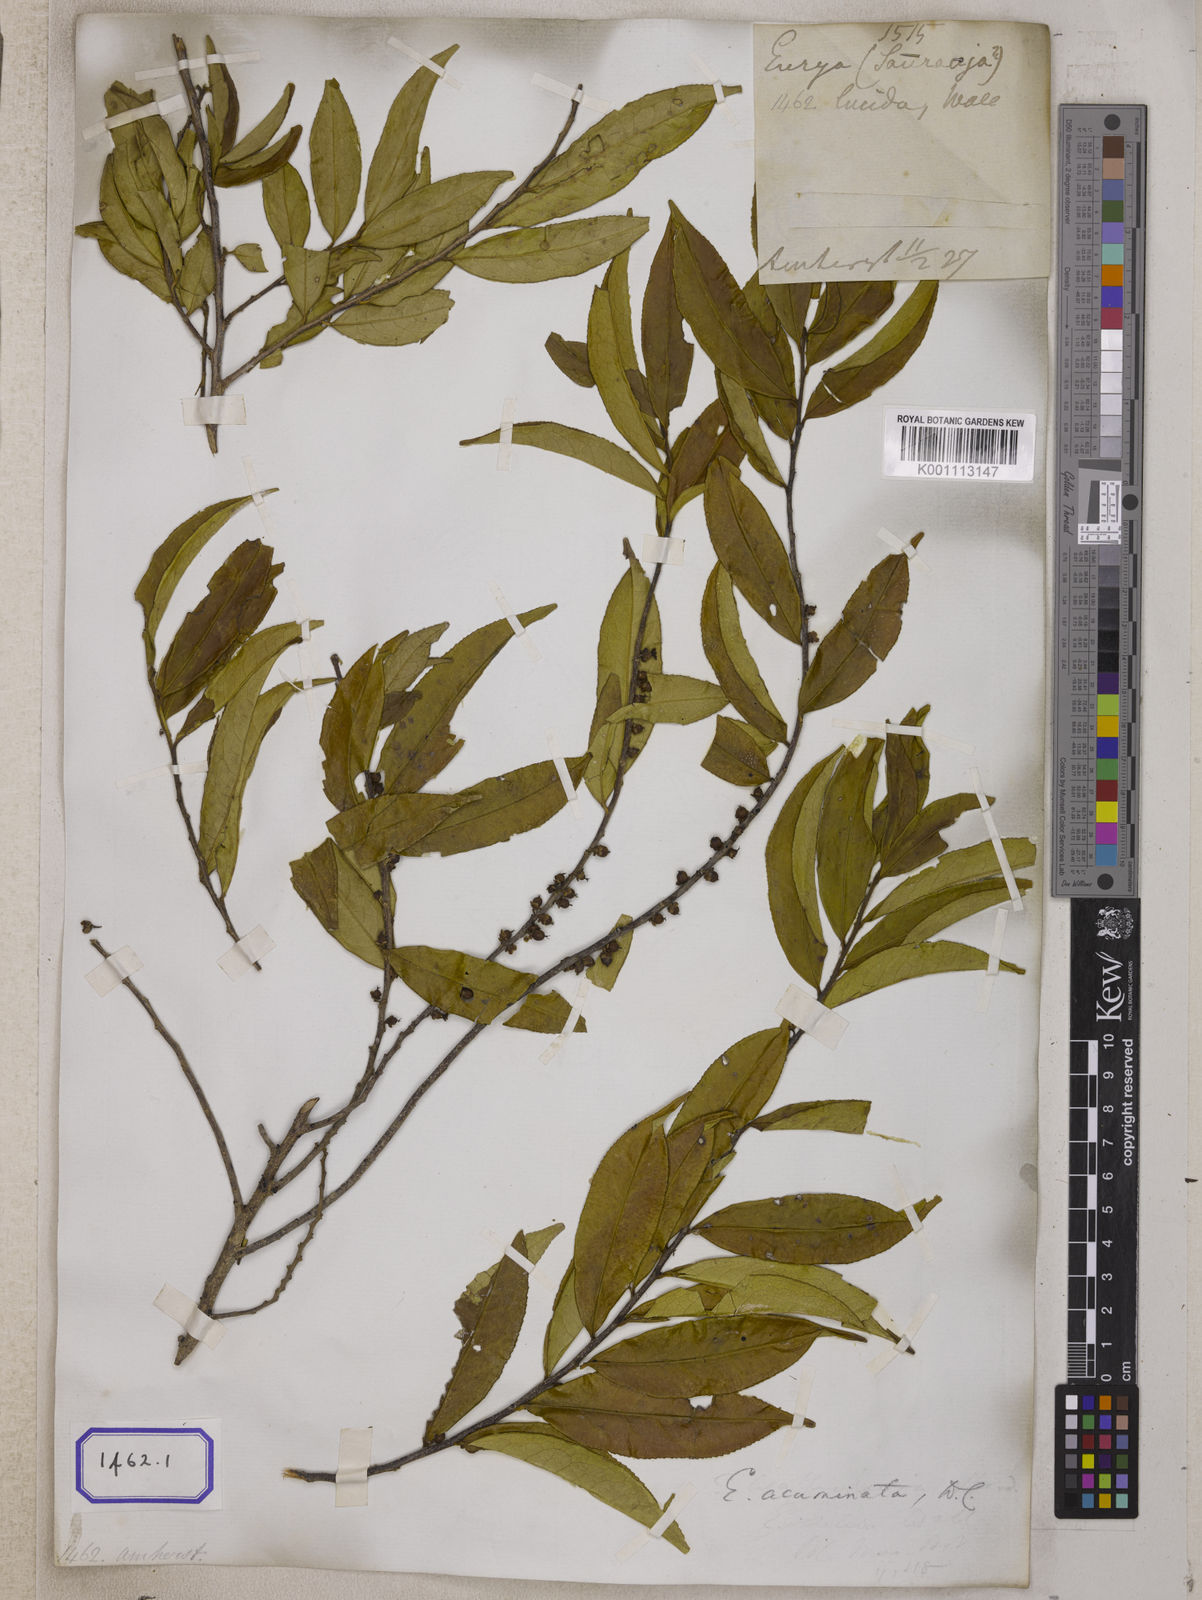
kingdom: Plantae
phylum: Tracheophyta
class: Magnoliopsida
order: Ericales
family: Pentaphylacaceae
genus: Eurya
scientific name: Eurya
